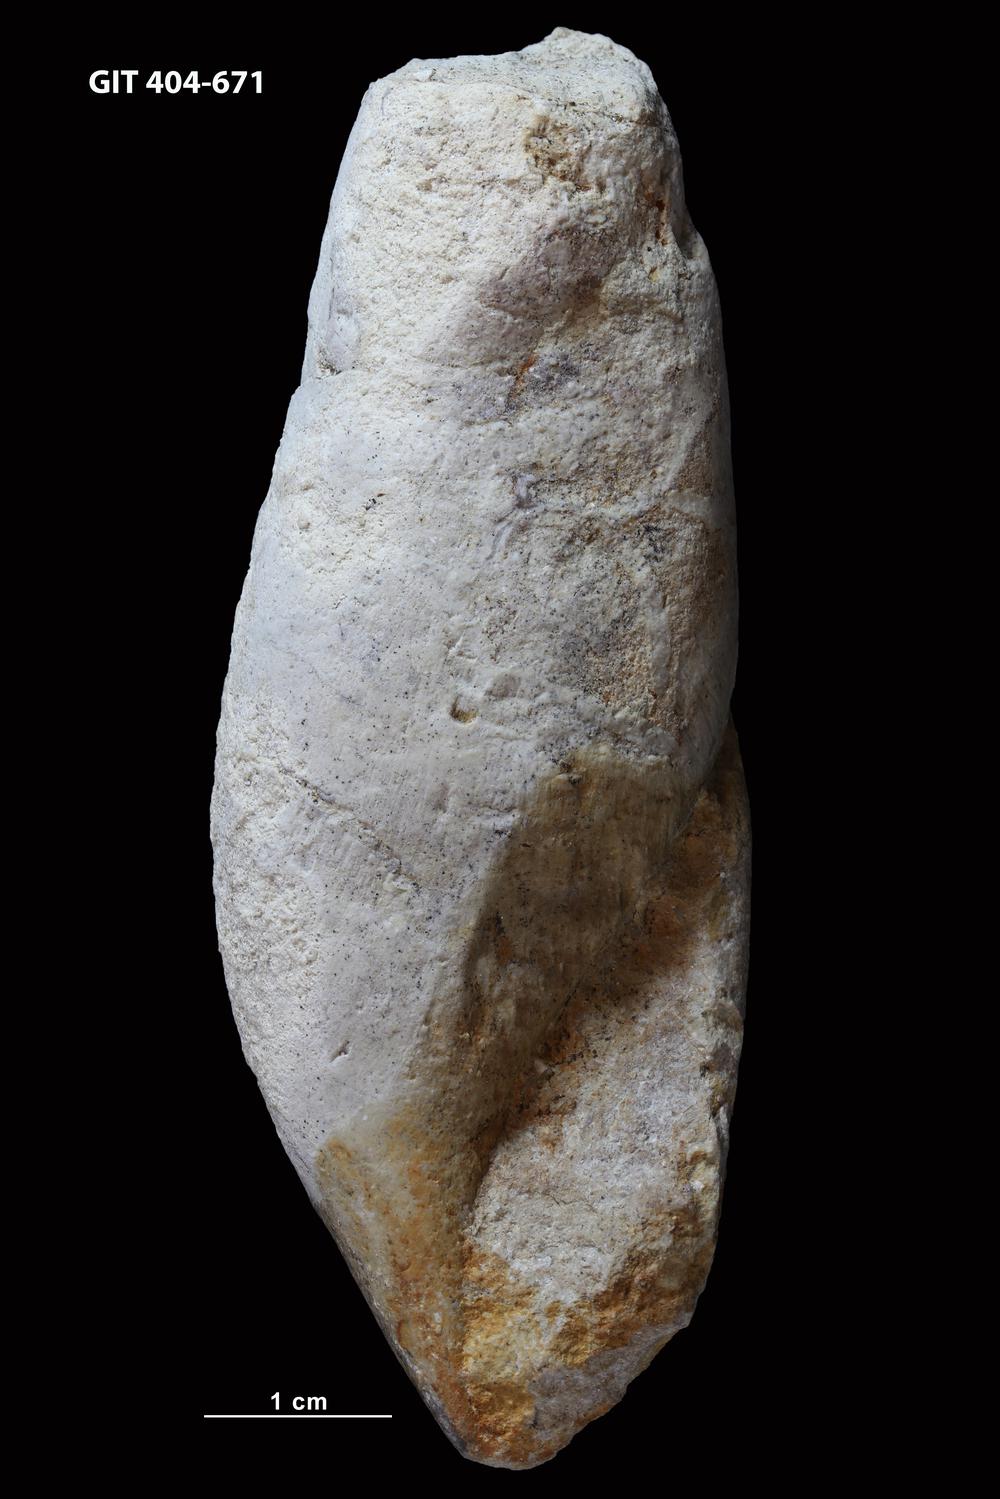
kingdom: Animalia
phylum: Mollusca
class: Gastropoda
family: Subulitidae
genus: Subulites
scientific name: Subulites subula
